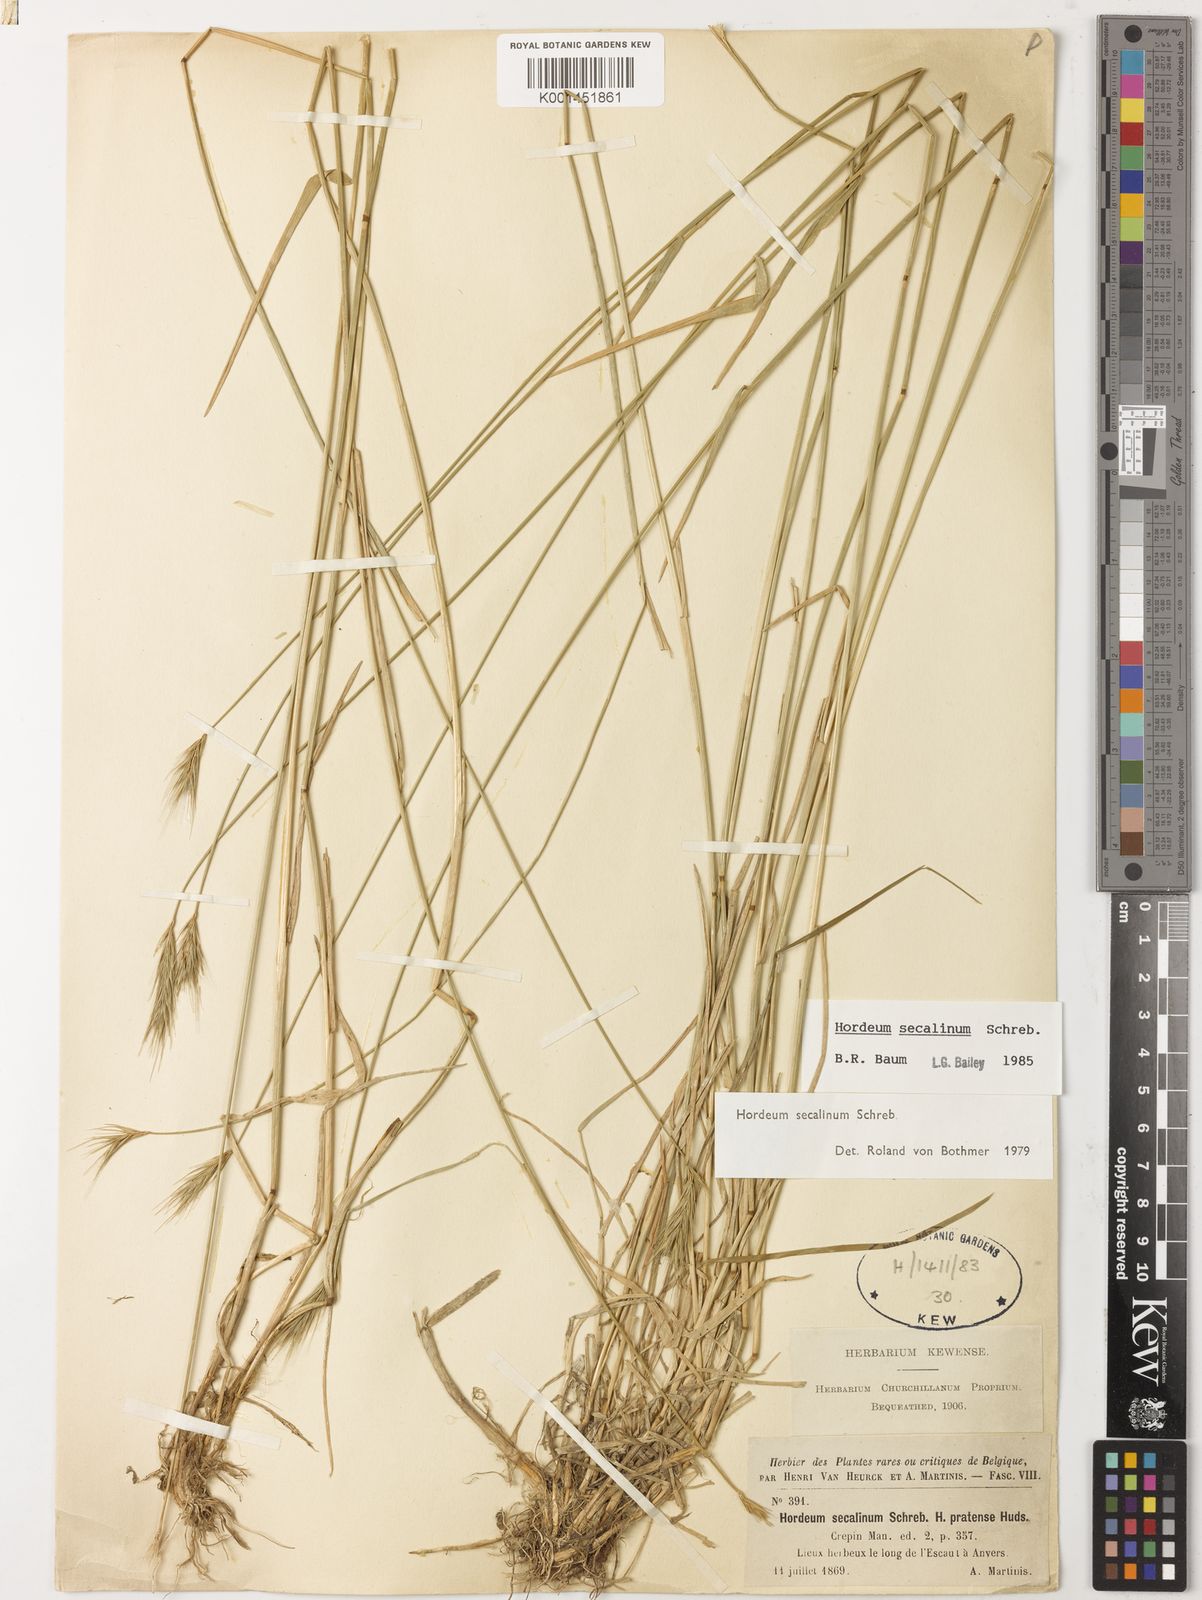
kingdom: Plantae
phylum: Tracheophyta
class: Liliopsida
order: Poales
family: Poaceae
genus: Hordeum
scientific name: Hordeum secalinum
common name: Meadow barley
